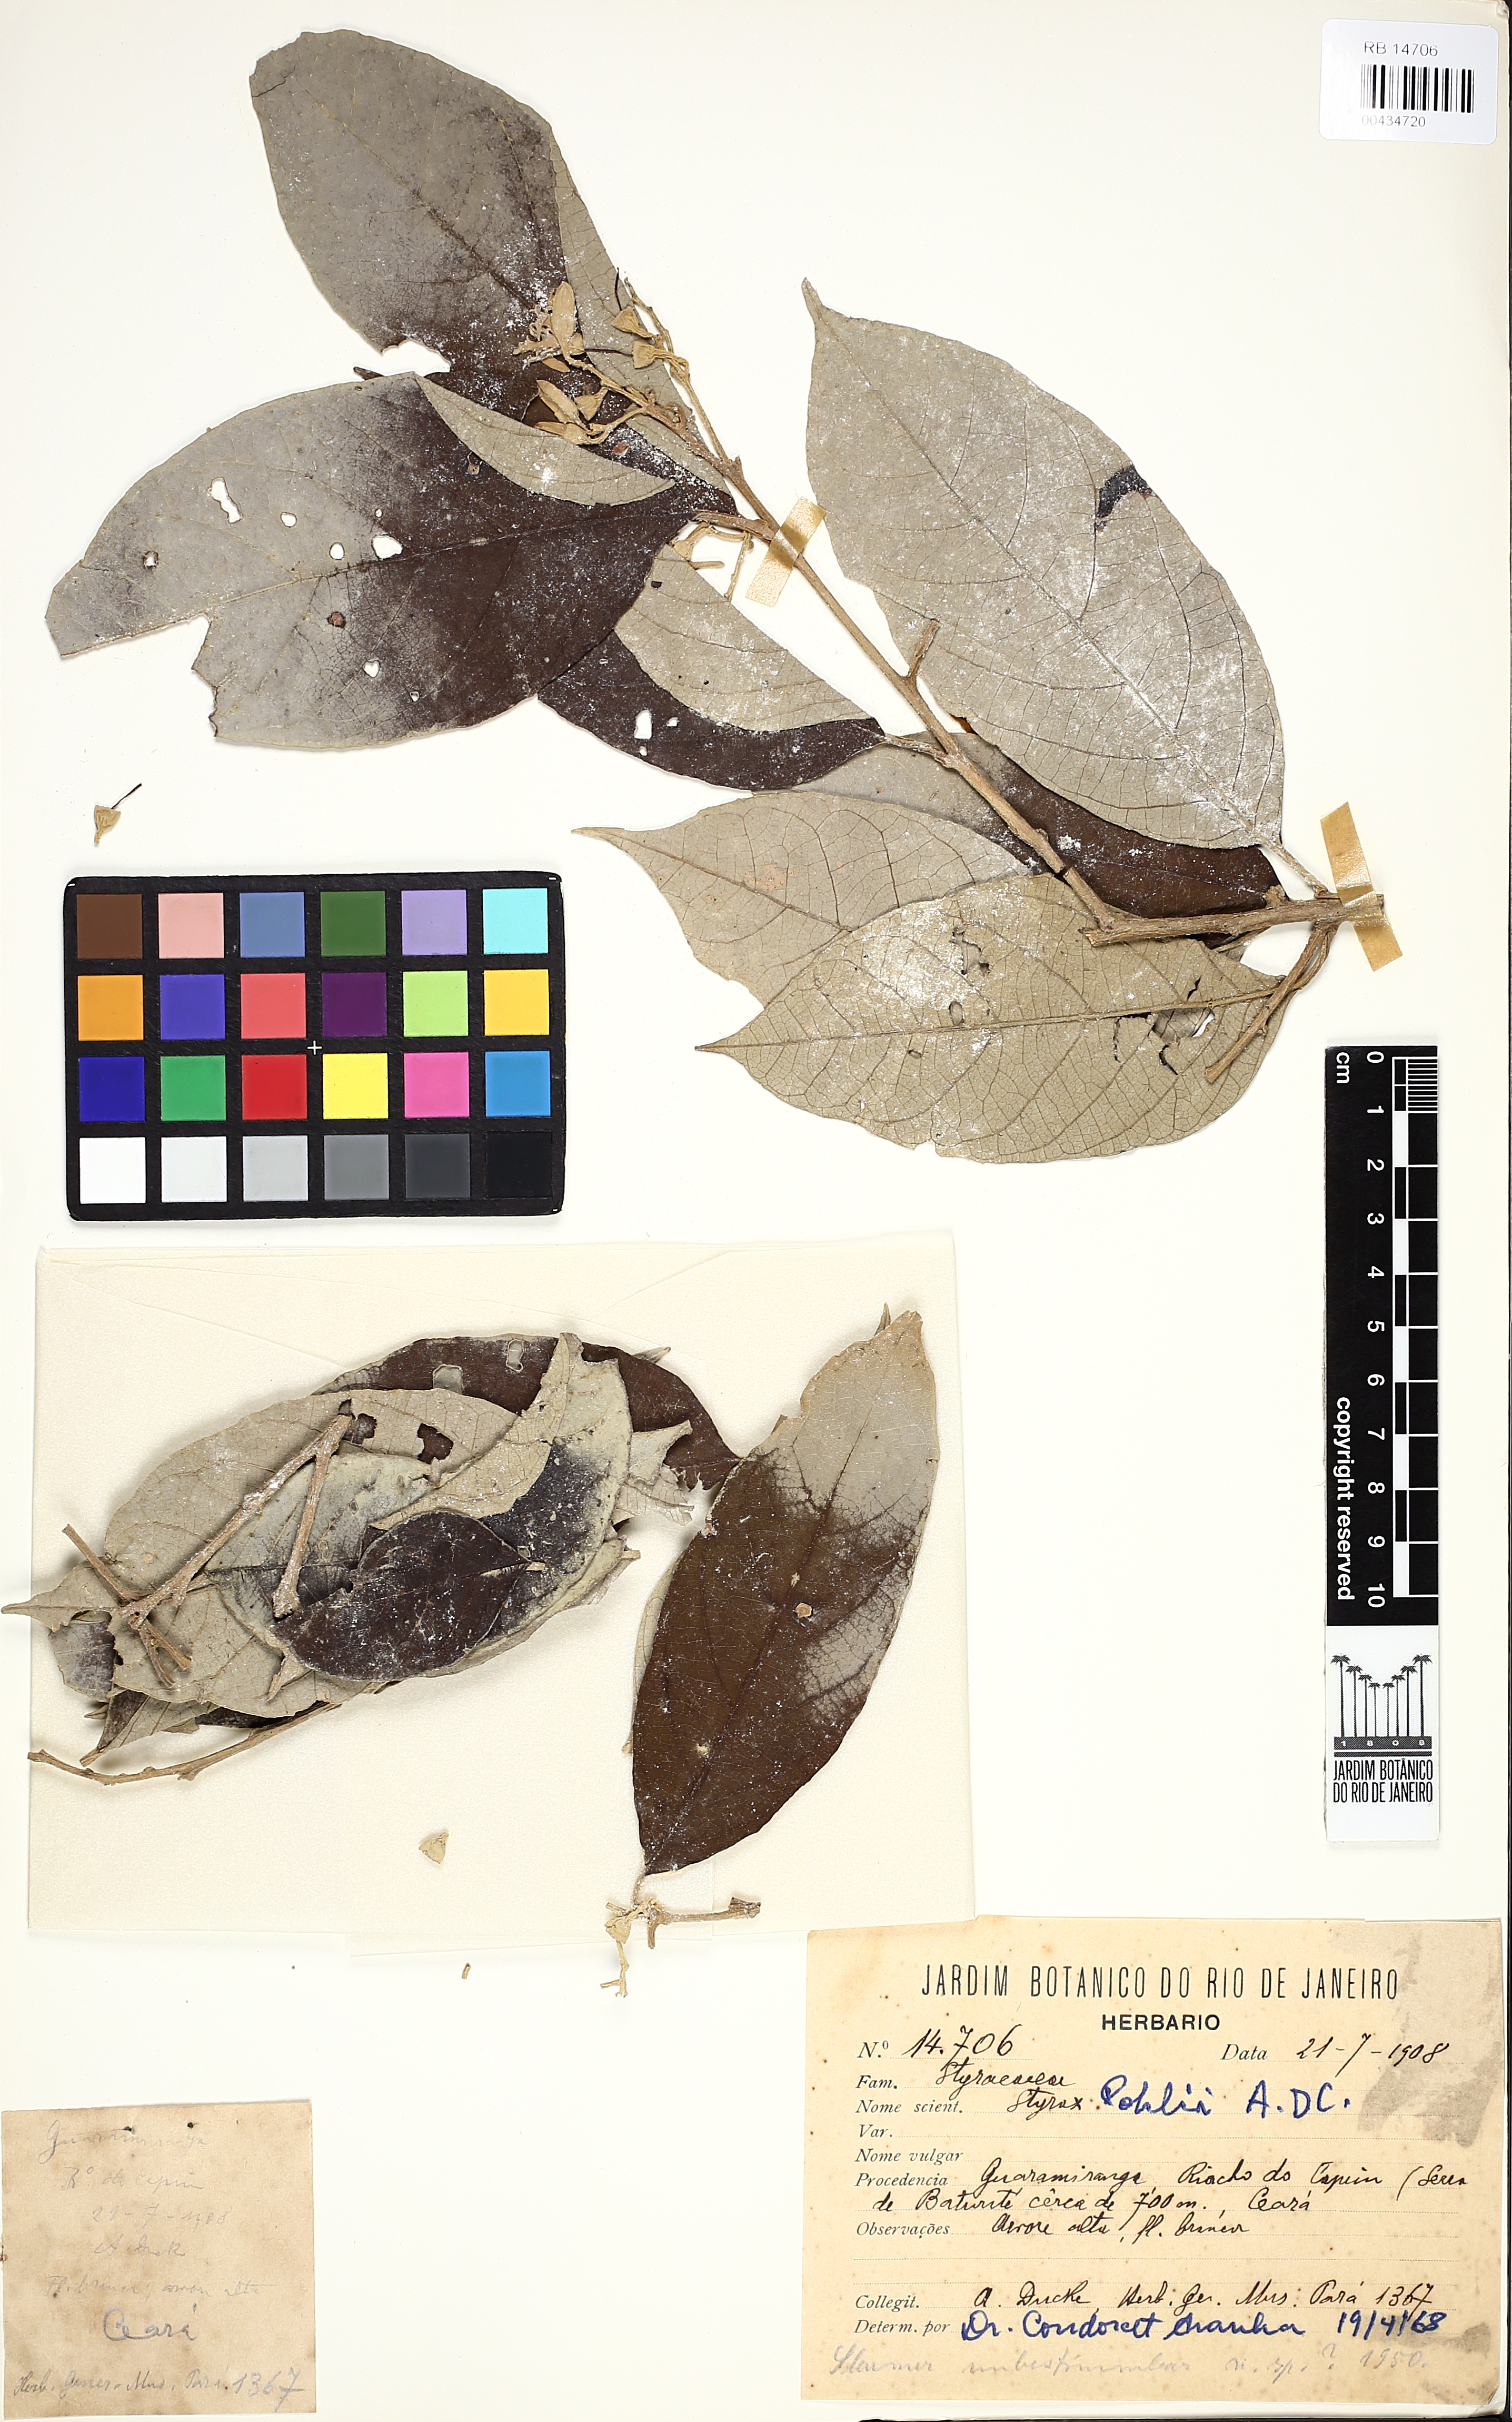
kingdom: Plantae
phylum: Tracheophyta
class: Magnoliopsida
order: Ericales
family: Styracaceae
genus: Styrax
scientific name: Styrax pohlii
